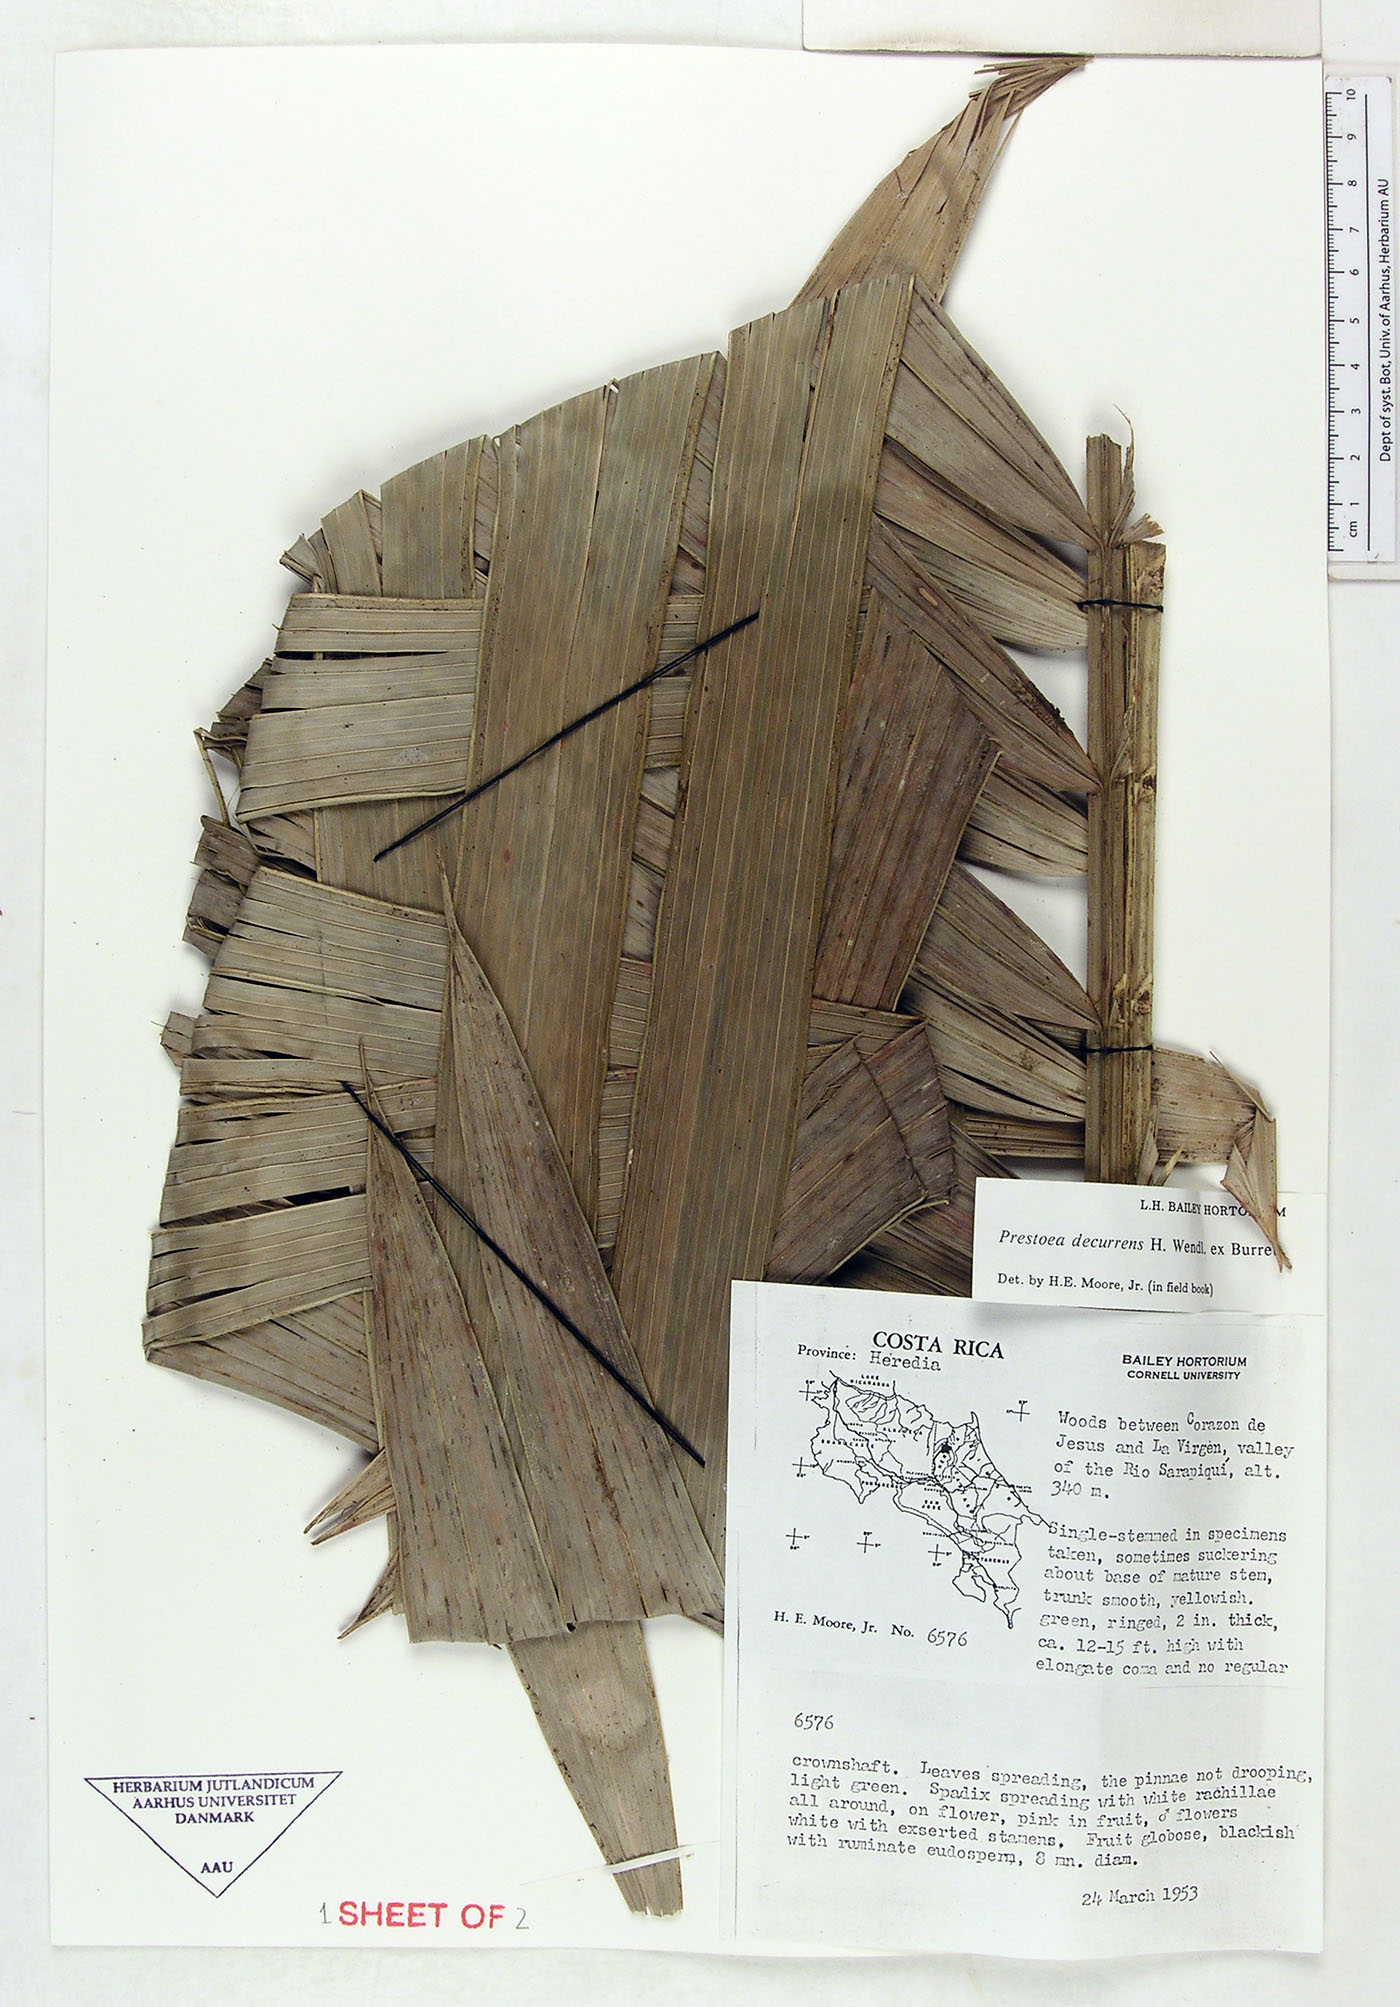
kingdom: Plantae
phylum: Tracheophyta
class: Liliopsida
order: Arecales
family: Arecaceae
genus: Prestoea
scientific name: Prestoea decurrens
